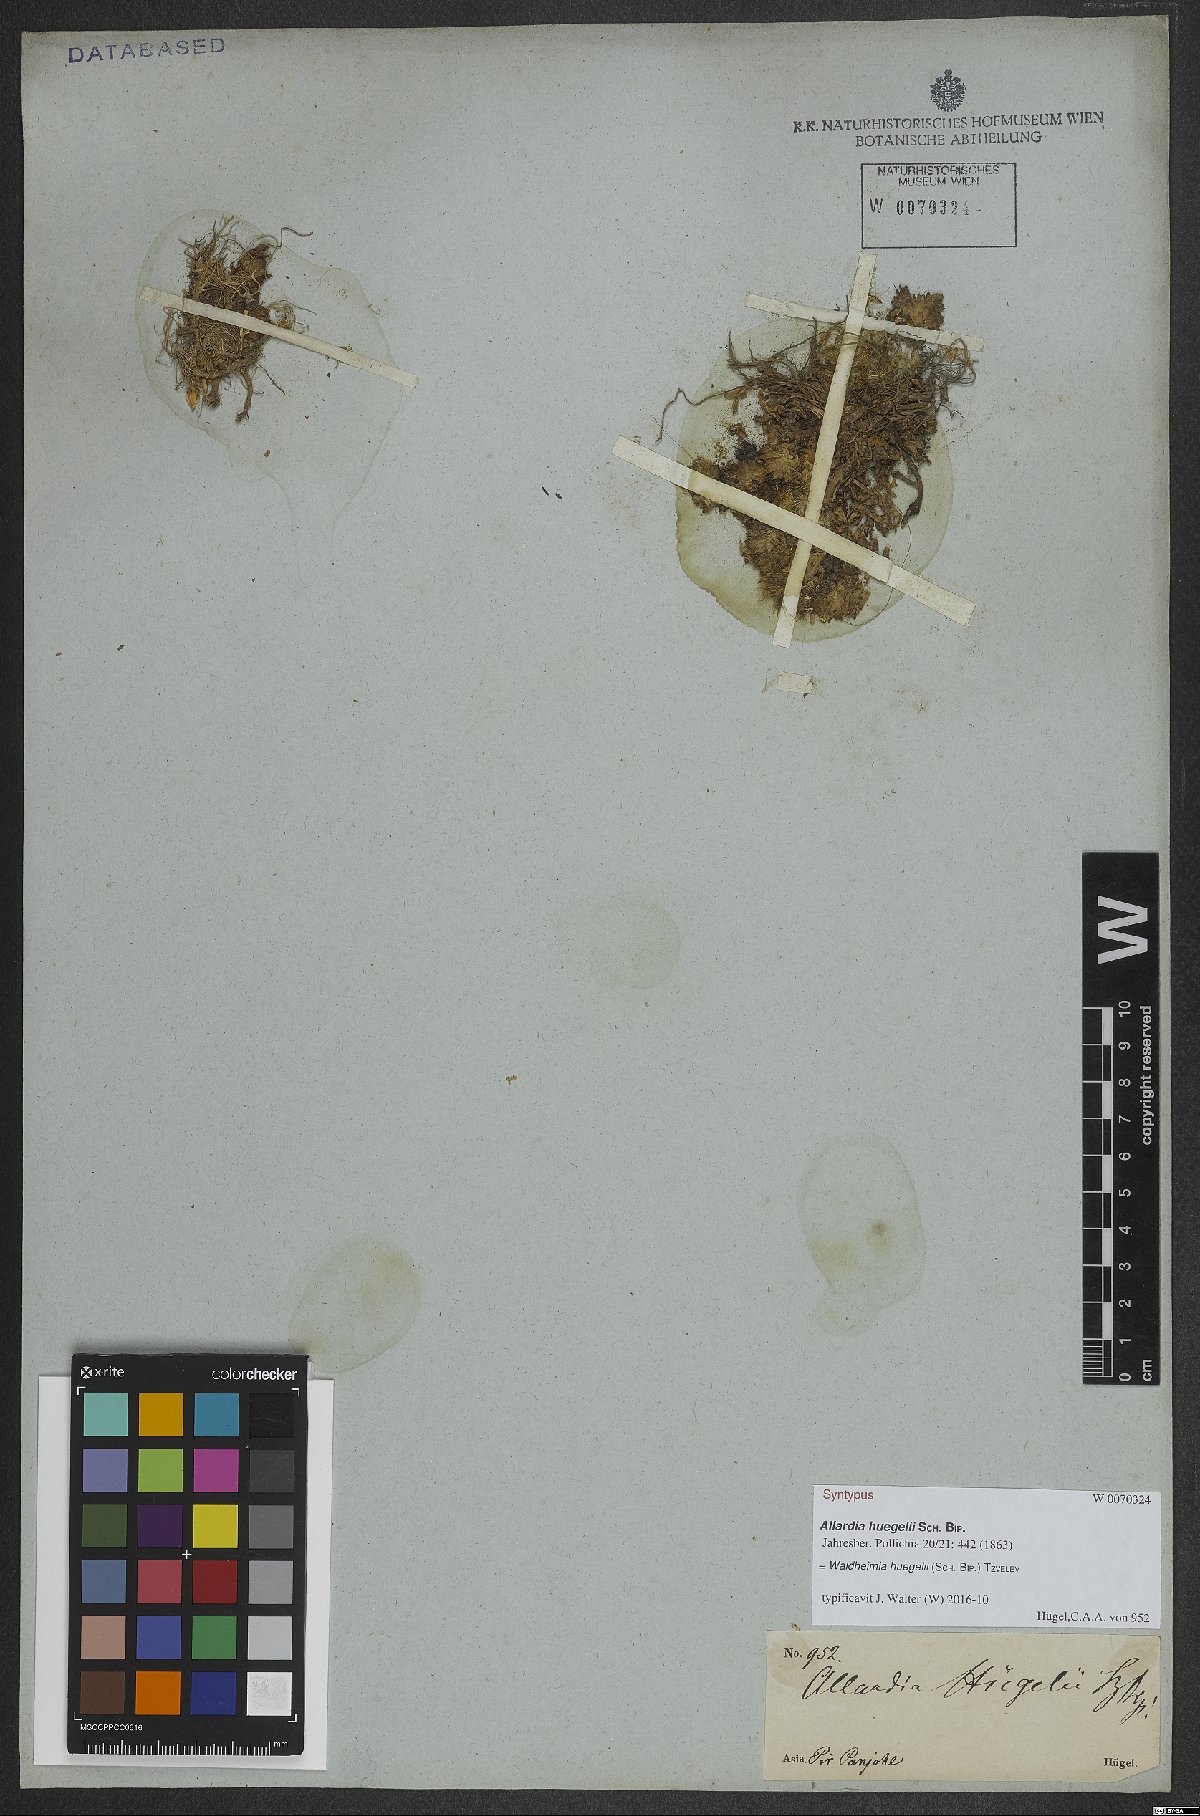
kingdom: Plantae
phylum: Tracheophyta
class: Magnoliopsida
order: Asterales
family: Asteraceae
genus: Allardia
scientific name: Allardia huegelii
